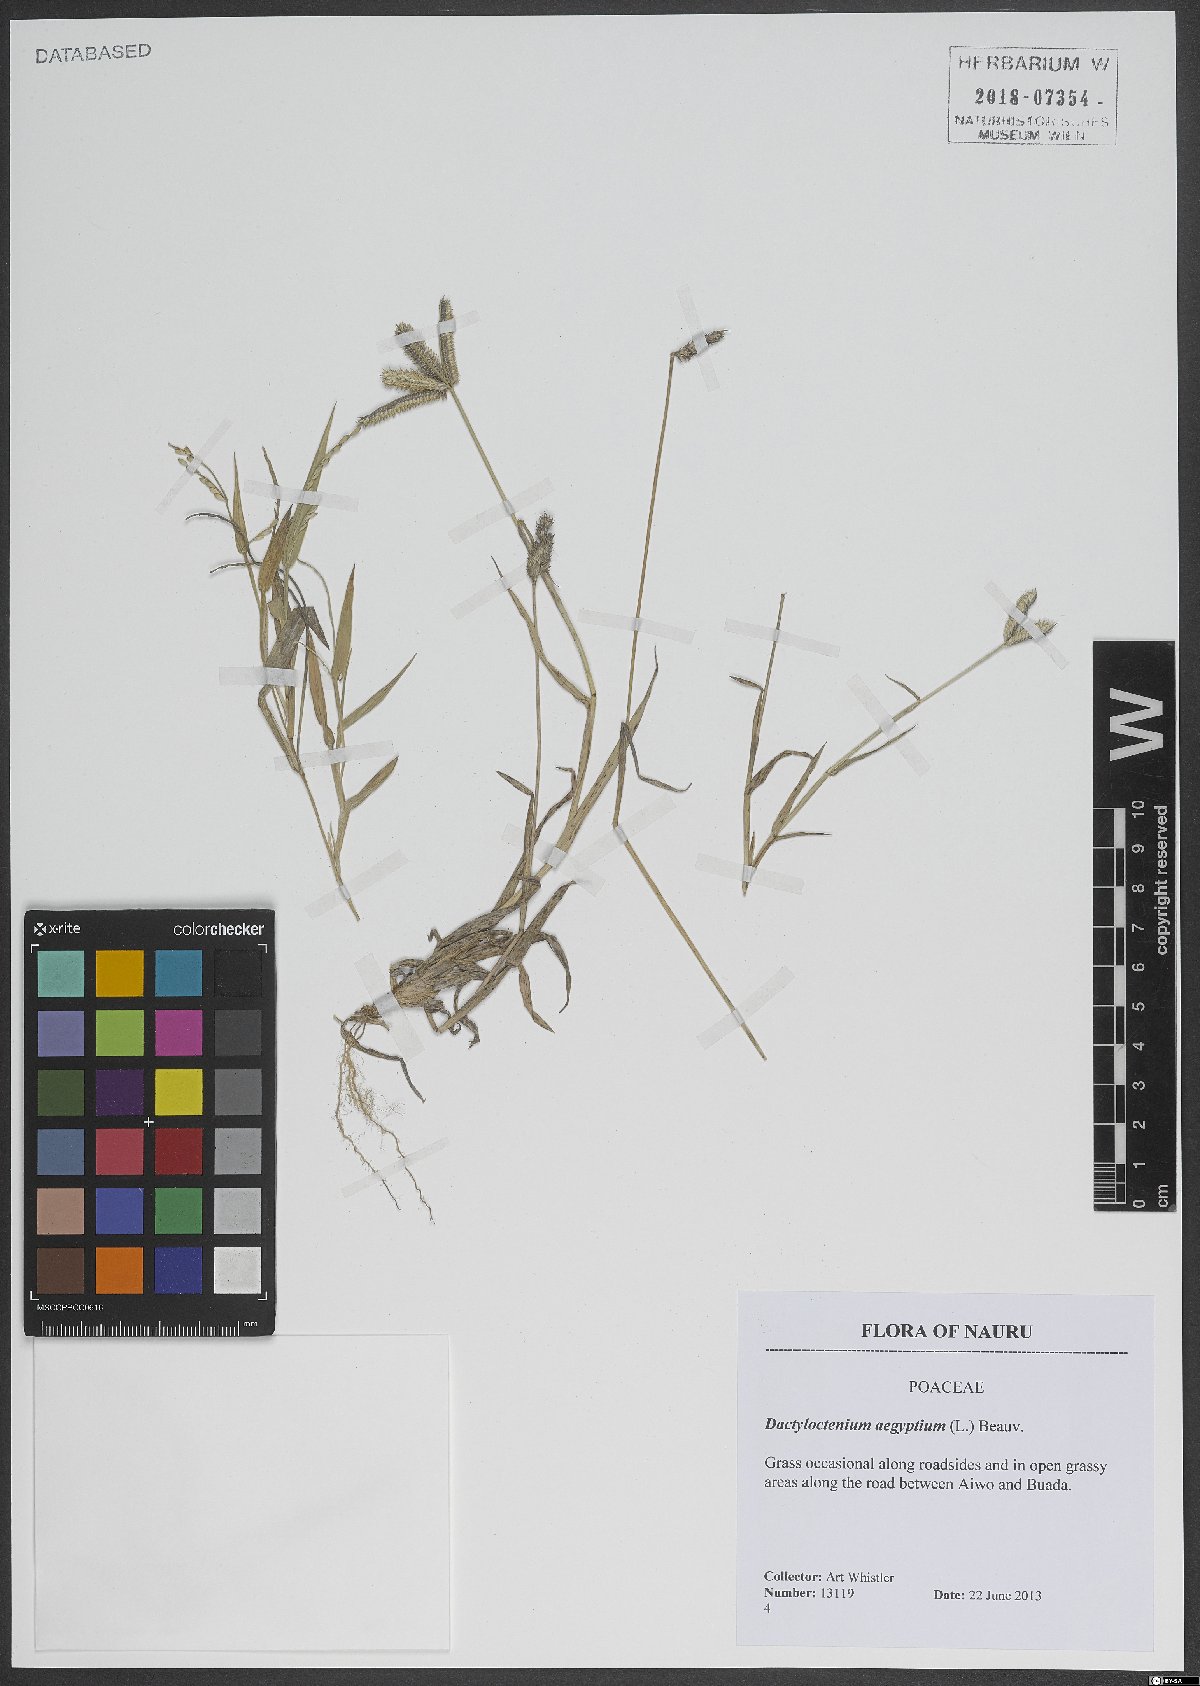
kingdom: Plantae
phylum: Tracheophyta
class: Liliopsida
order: Poales
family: Poaceae
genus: Dactyloctenium
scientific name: Dactyloctenium aegyptium
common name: Egyptian grass
